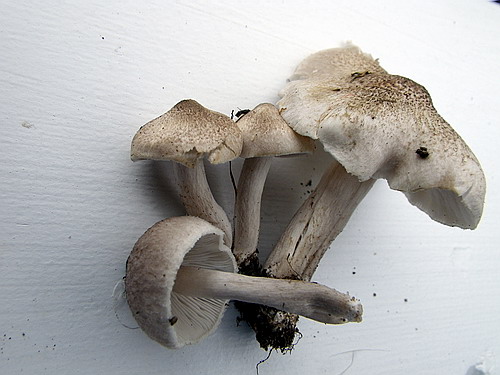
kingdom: Fungi
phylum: Basidiomycota
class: Agaricomycetes
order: Agaricales
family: Tricholomataceae
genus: Tricholoma
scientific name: Tricholoma argyraceum
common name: spids ridderhat
